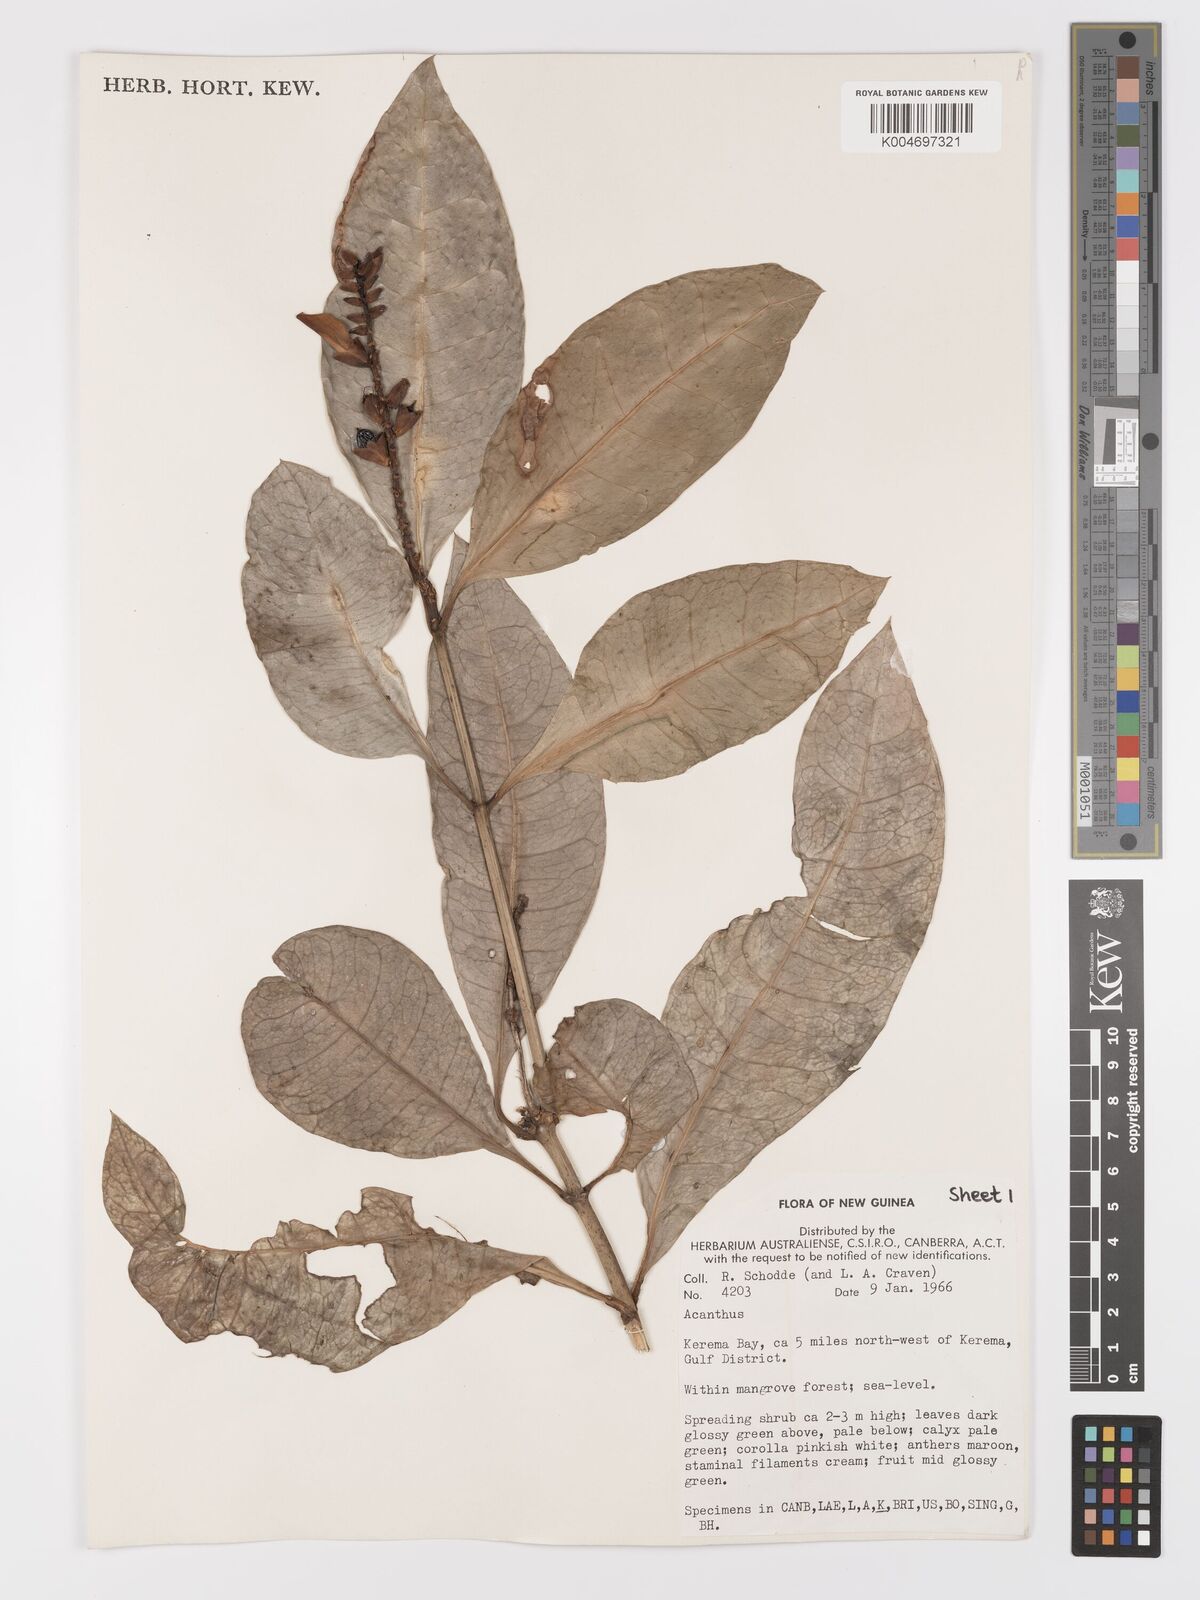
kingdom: Plantae
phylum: Tracheophyta
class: Magnoliopsida
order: Lamiales
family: Acanthaceae
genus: Acanthus
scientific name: Acanthus
